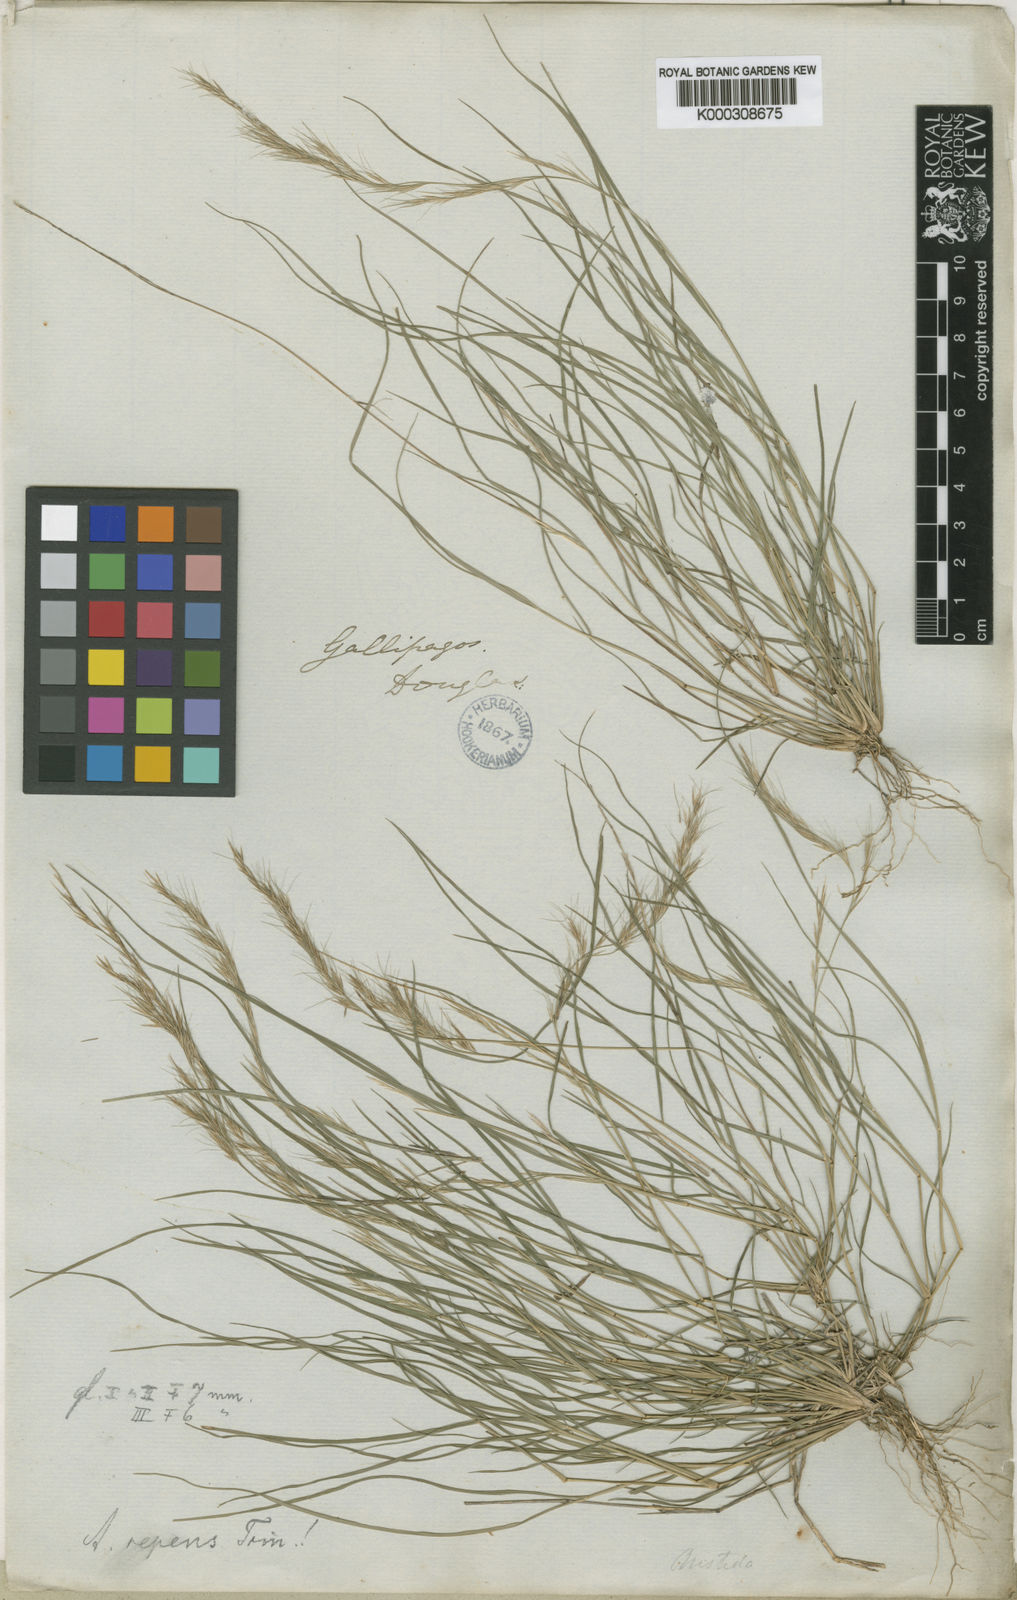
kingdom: Plantae
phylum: Tracheophyta
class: Liliopsida
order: Poales
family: Poaceae
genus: Aristida
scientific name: Aristida repens
